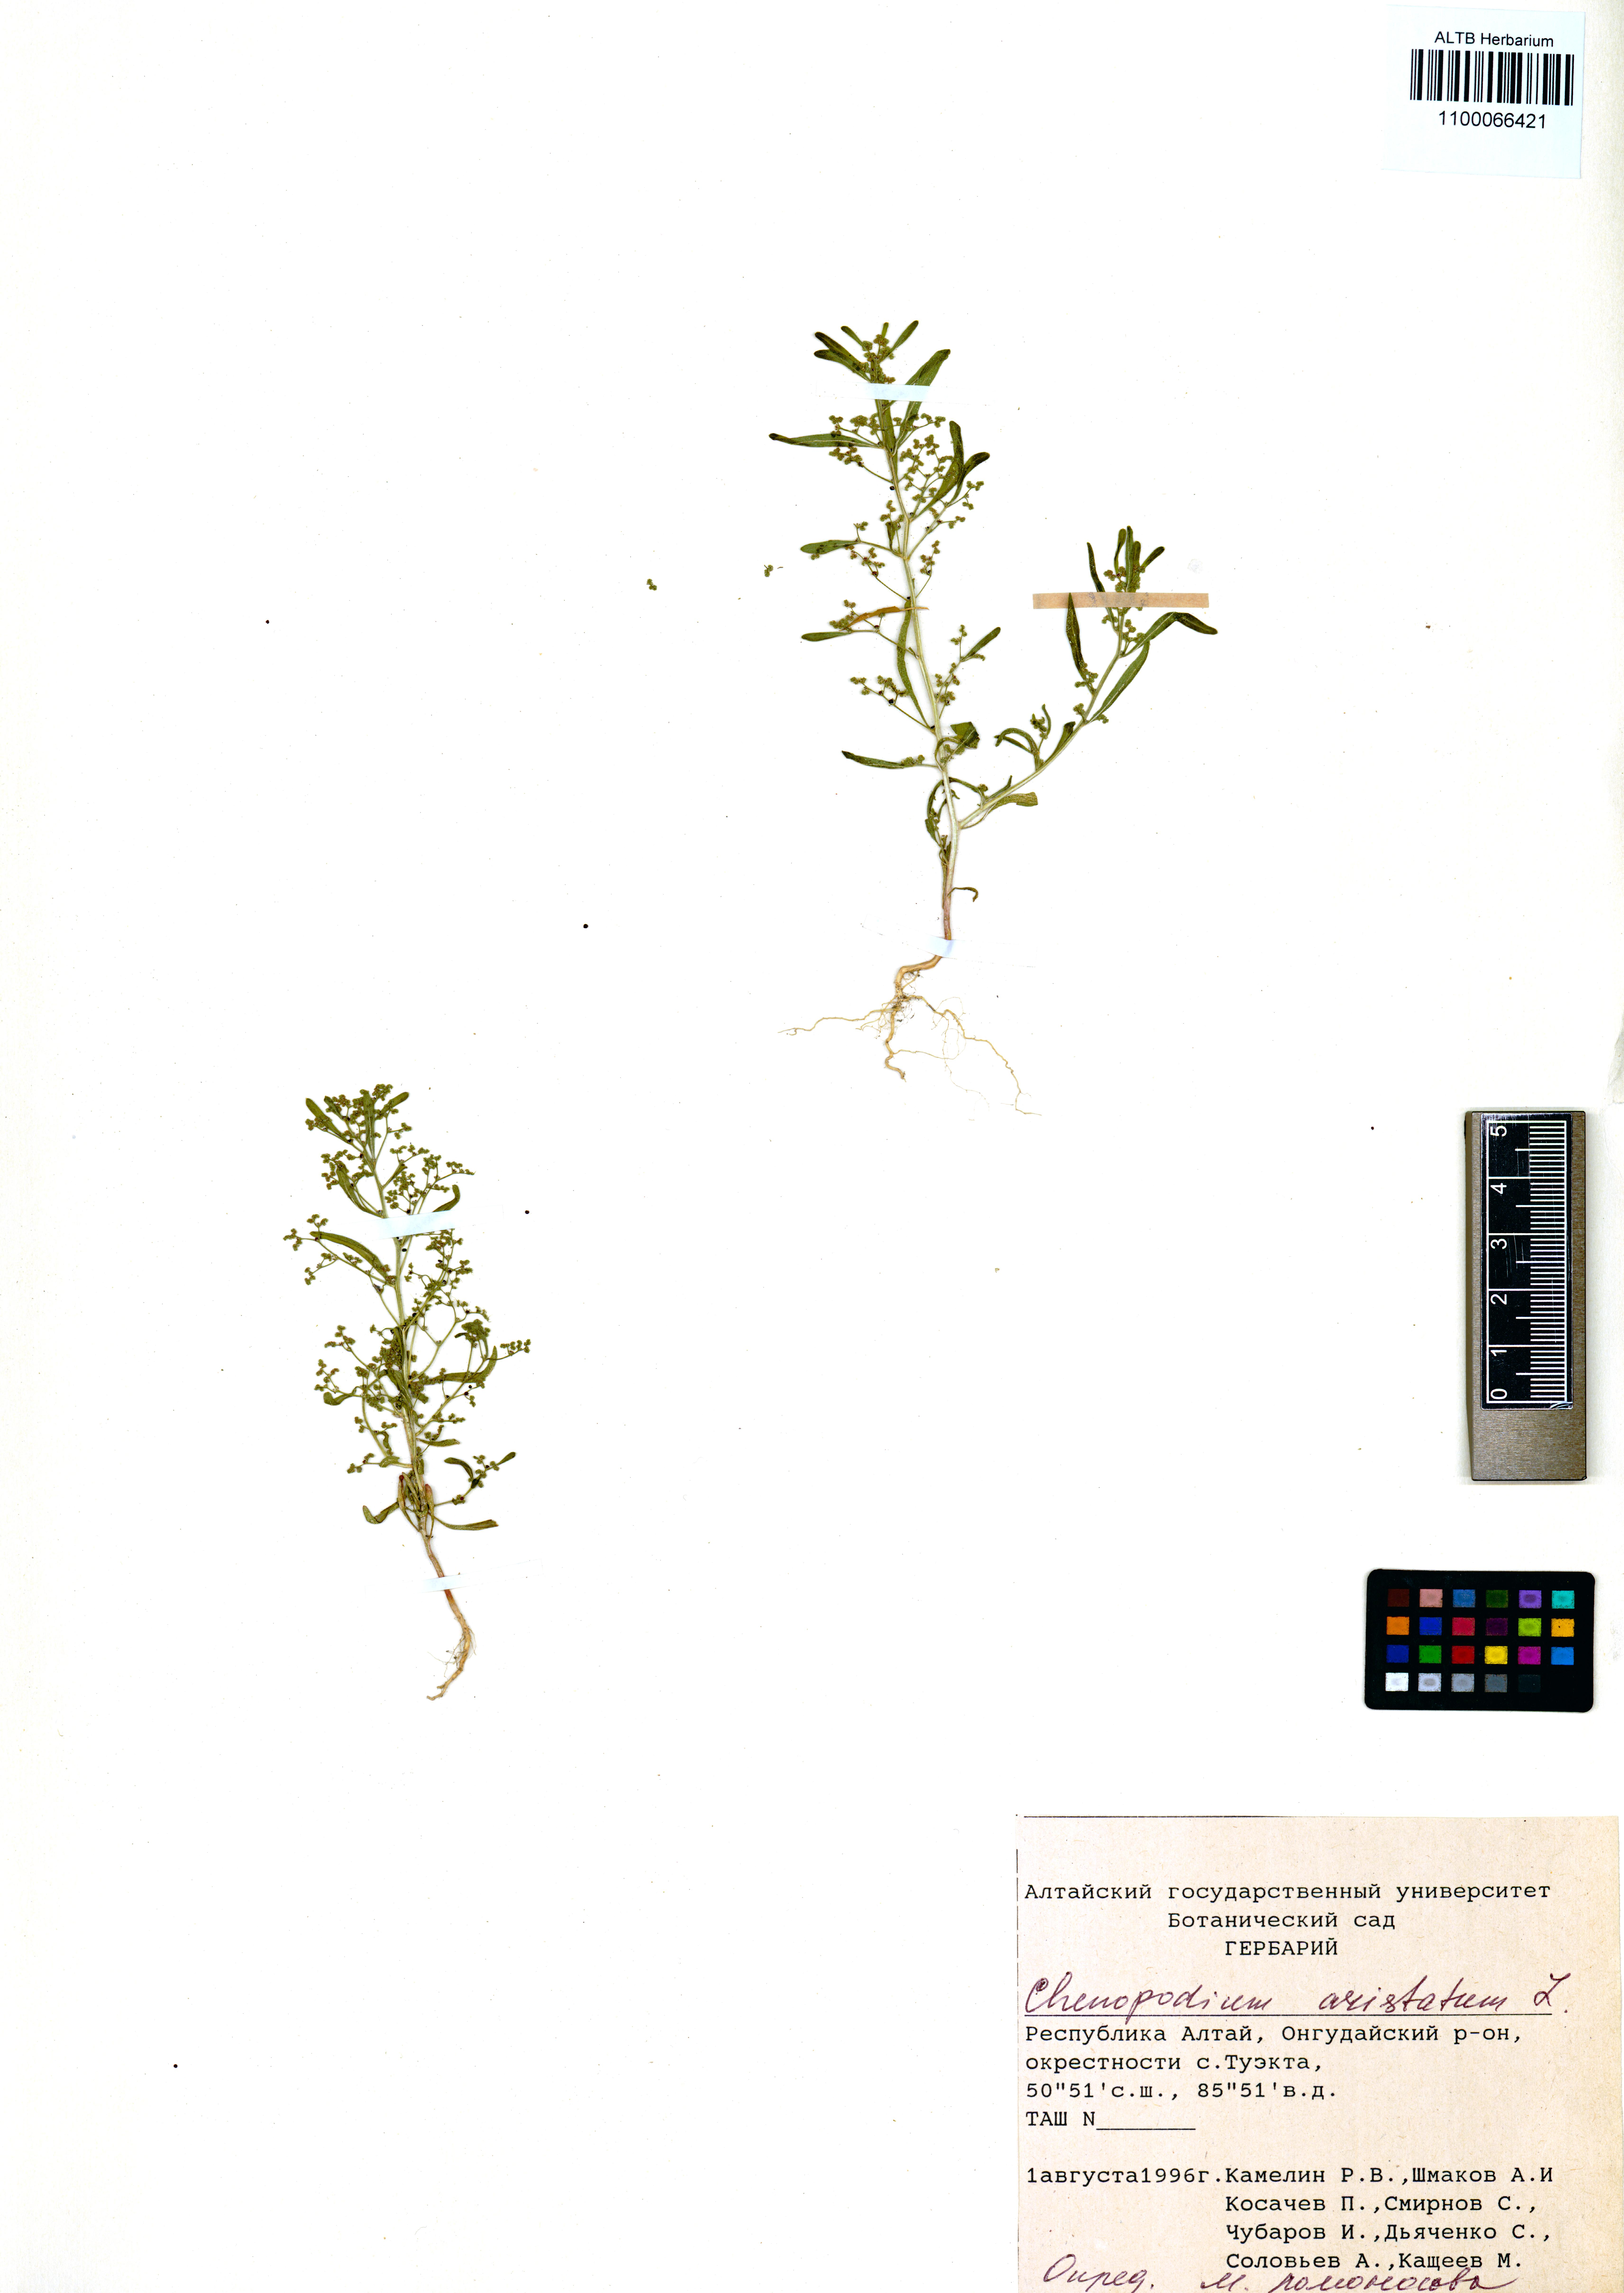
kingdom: Plantae
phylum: Tracheophyta
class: Magnoliopsida
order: Caryophyllales
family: Amaranthaceae
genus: Teloxys
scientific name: Teloxys aristata
